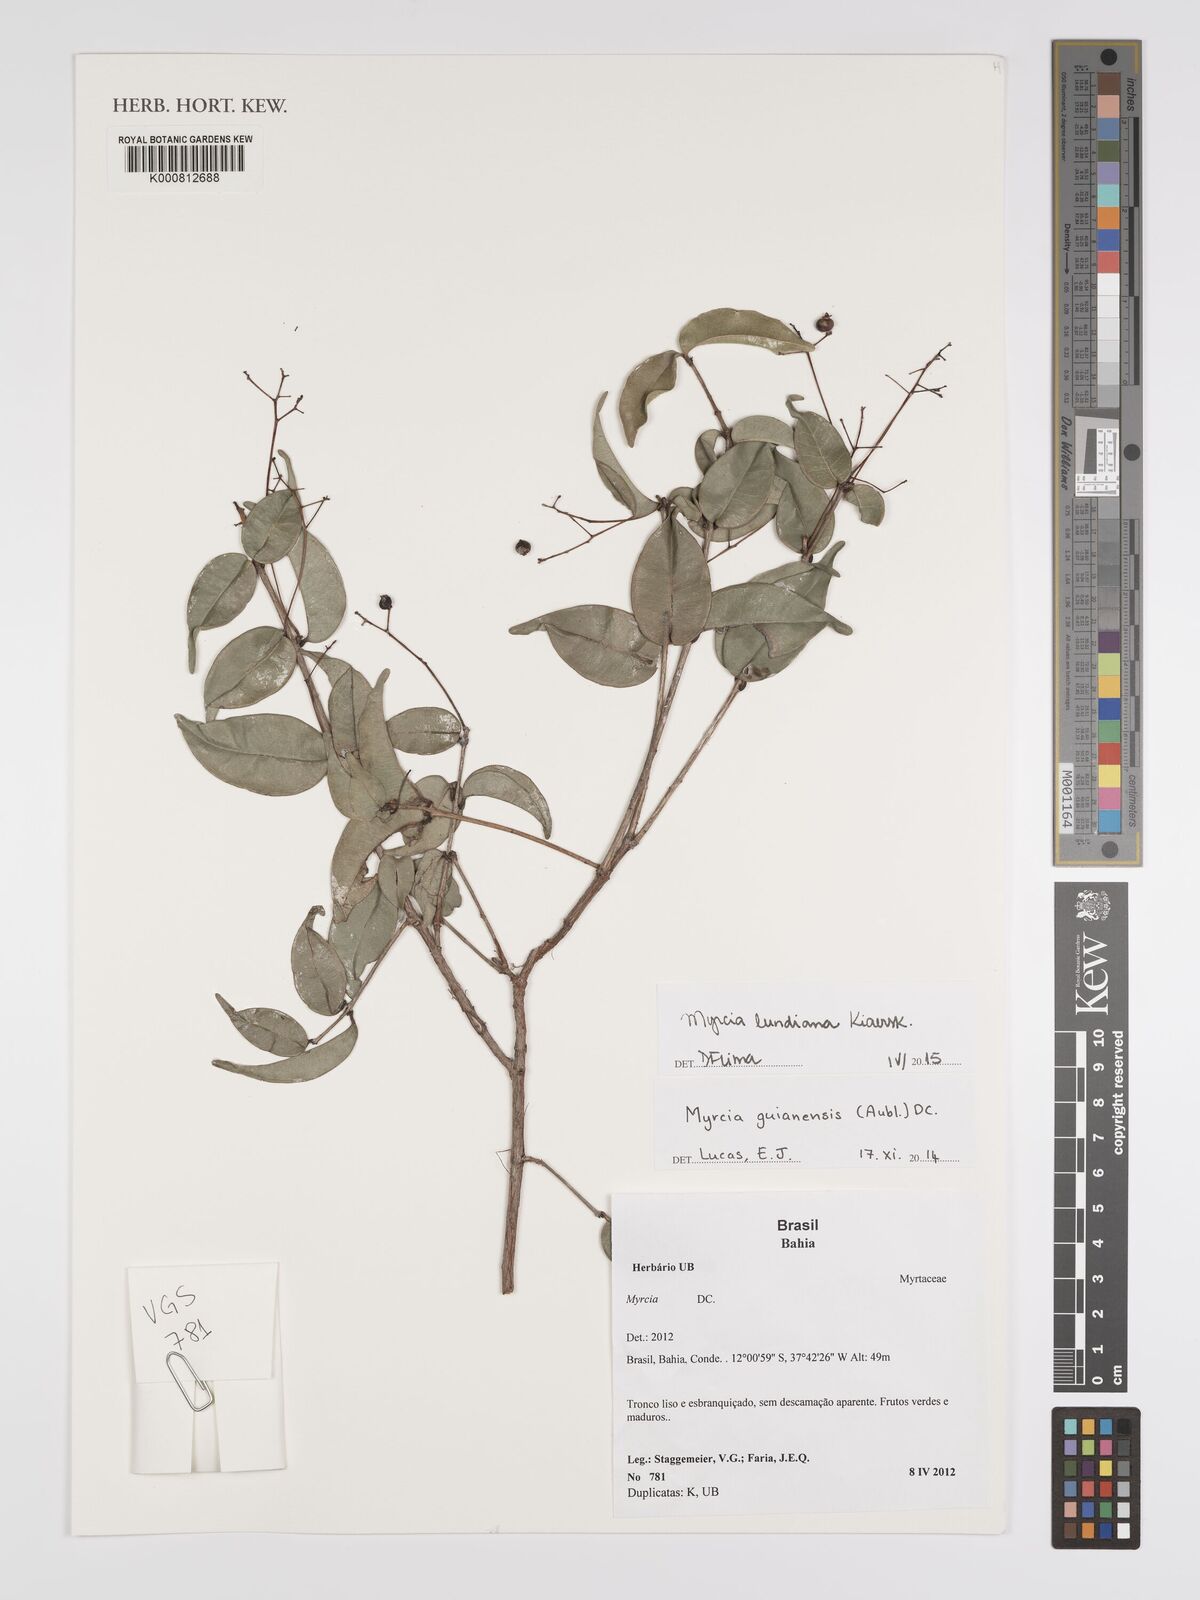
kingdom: Plantae
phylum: Tracheophyta
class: Magnoliopsida
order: Myrtales
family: Myrtaceae
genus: Myrcia
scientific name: Myrcia amazonica
